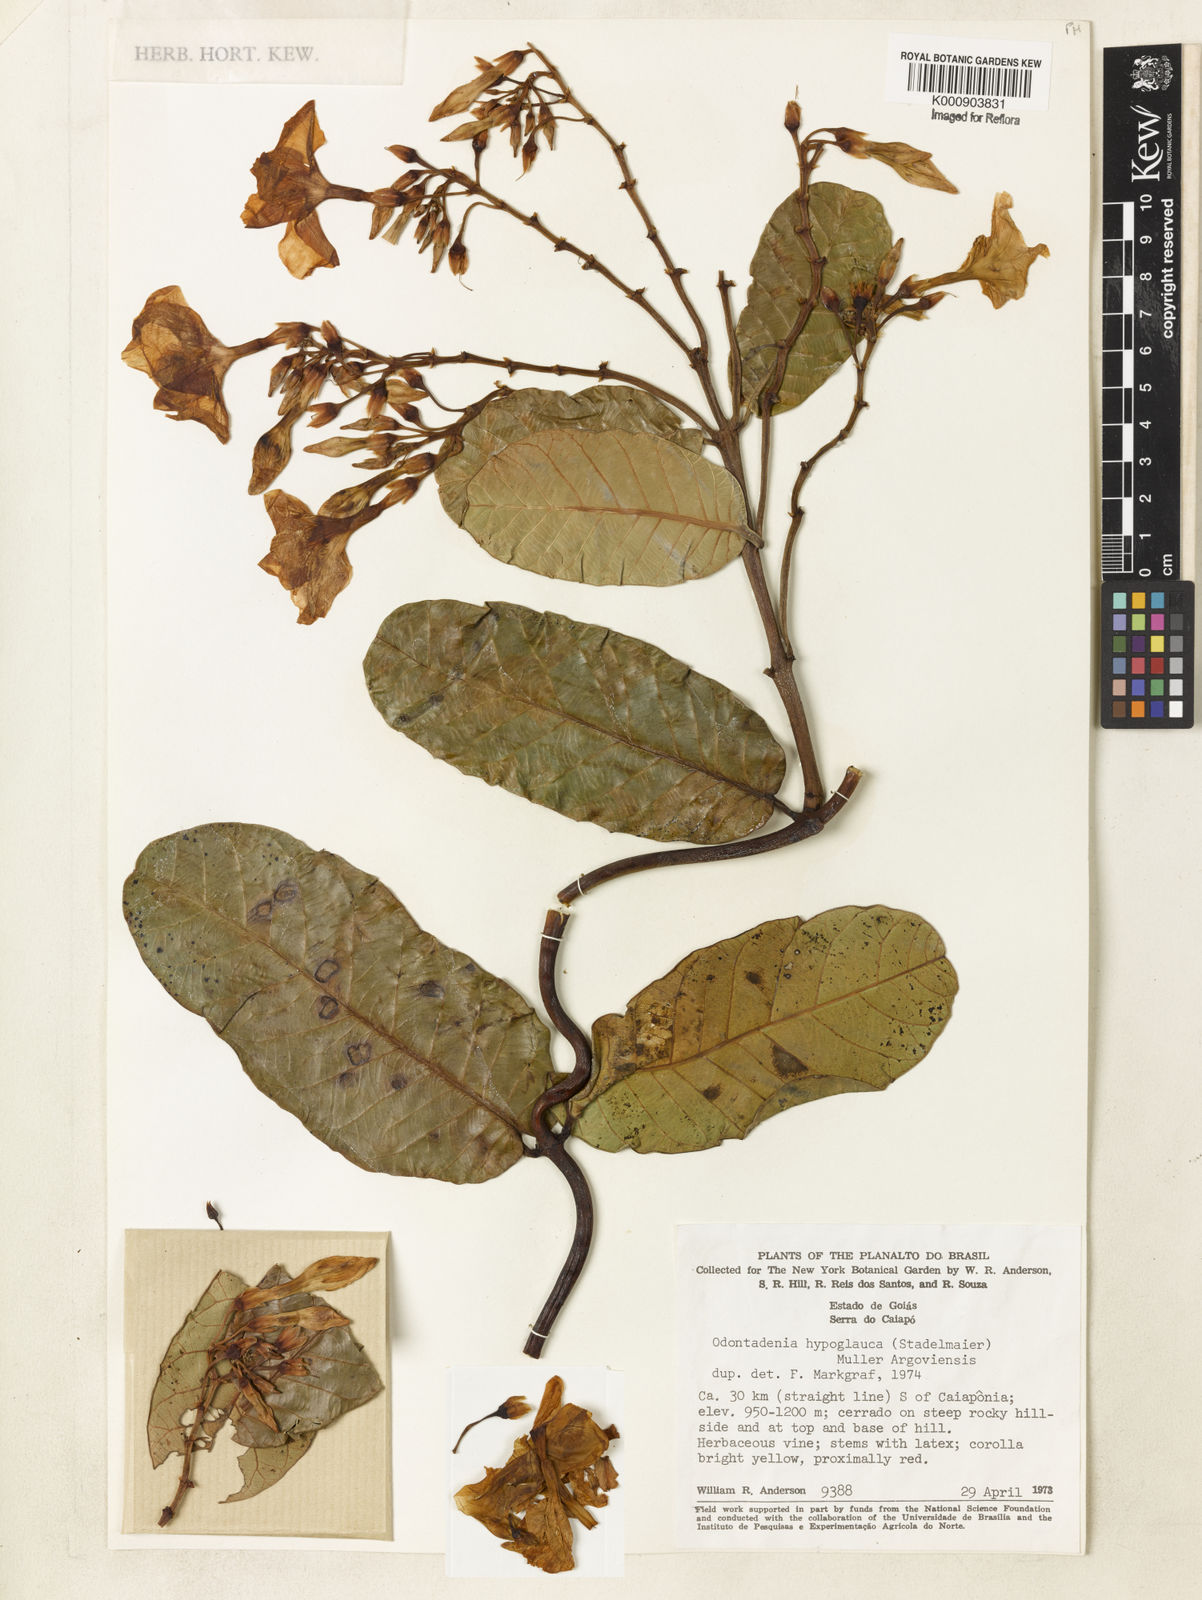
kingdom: Plantae
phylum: Tracheophyta
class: Magnoliopsida
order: Gentianales
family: Apocynaceae
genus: Odontadenia
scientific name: Odontadenia
